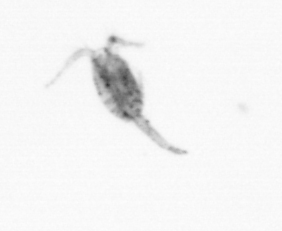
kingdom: Animalia
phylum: Arthropoda
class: Copepoda
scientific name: Copepoda
